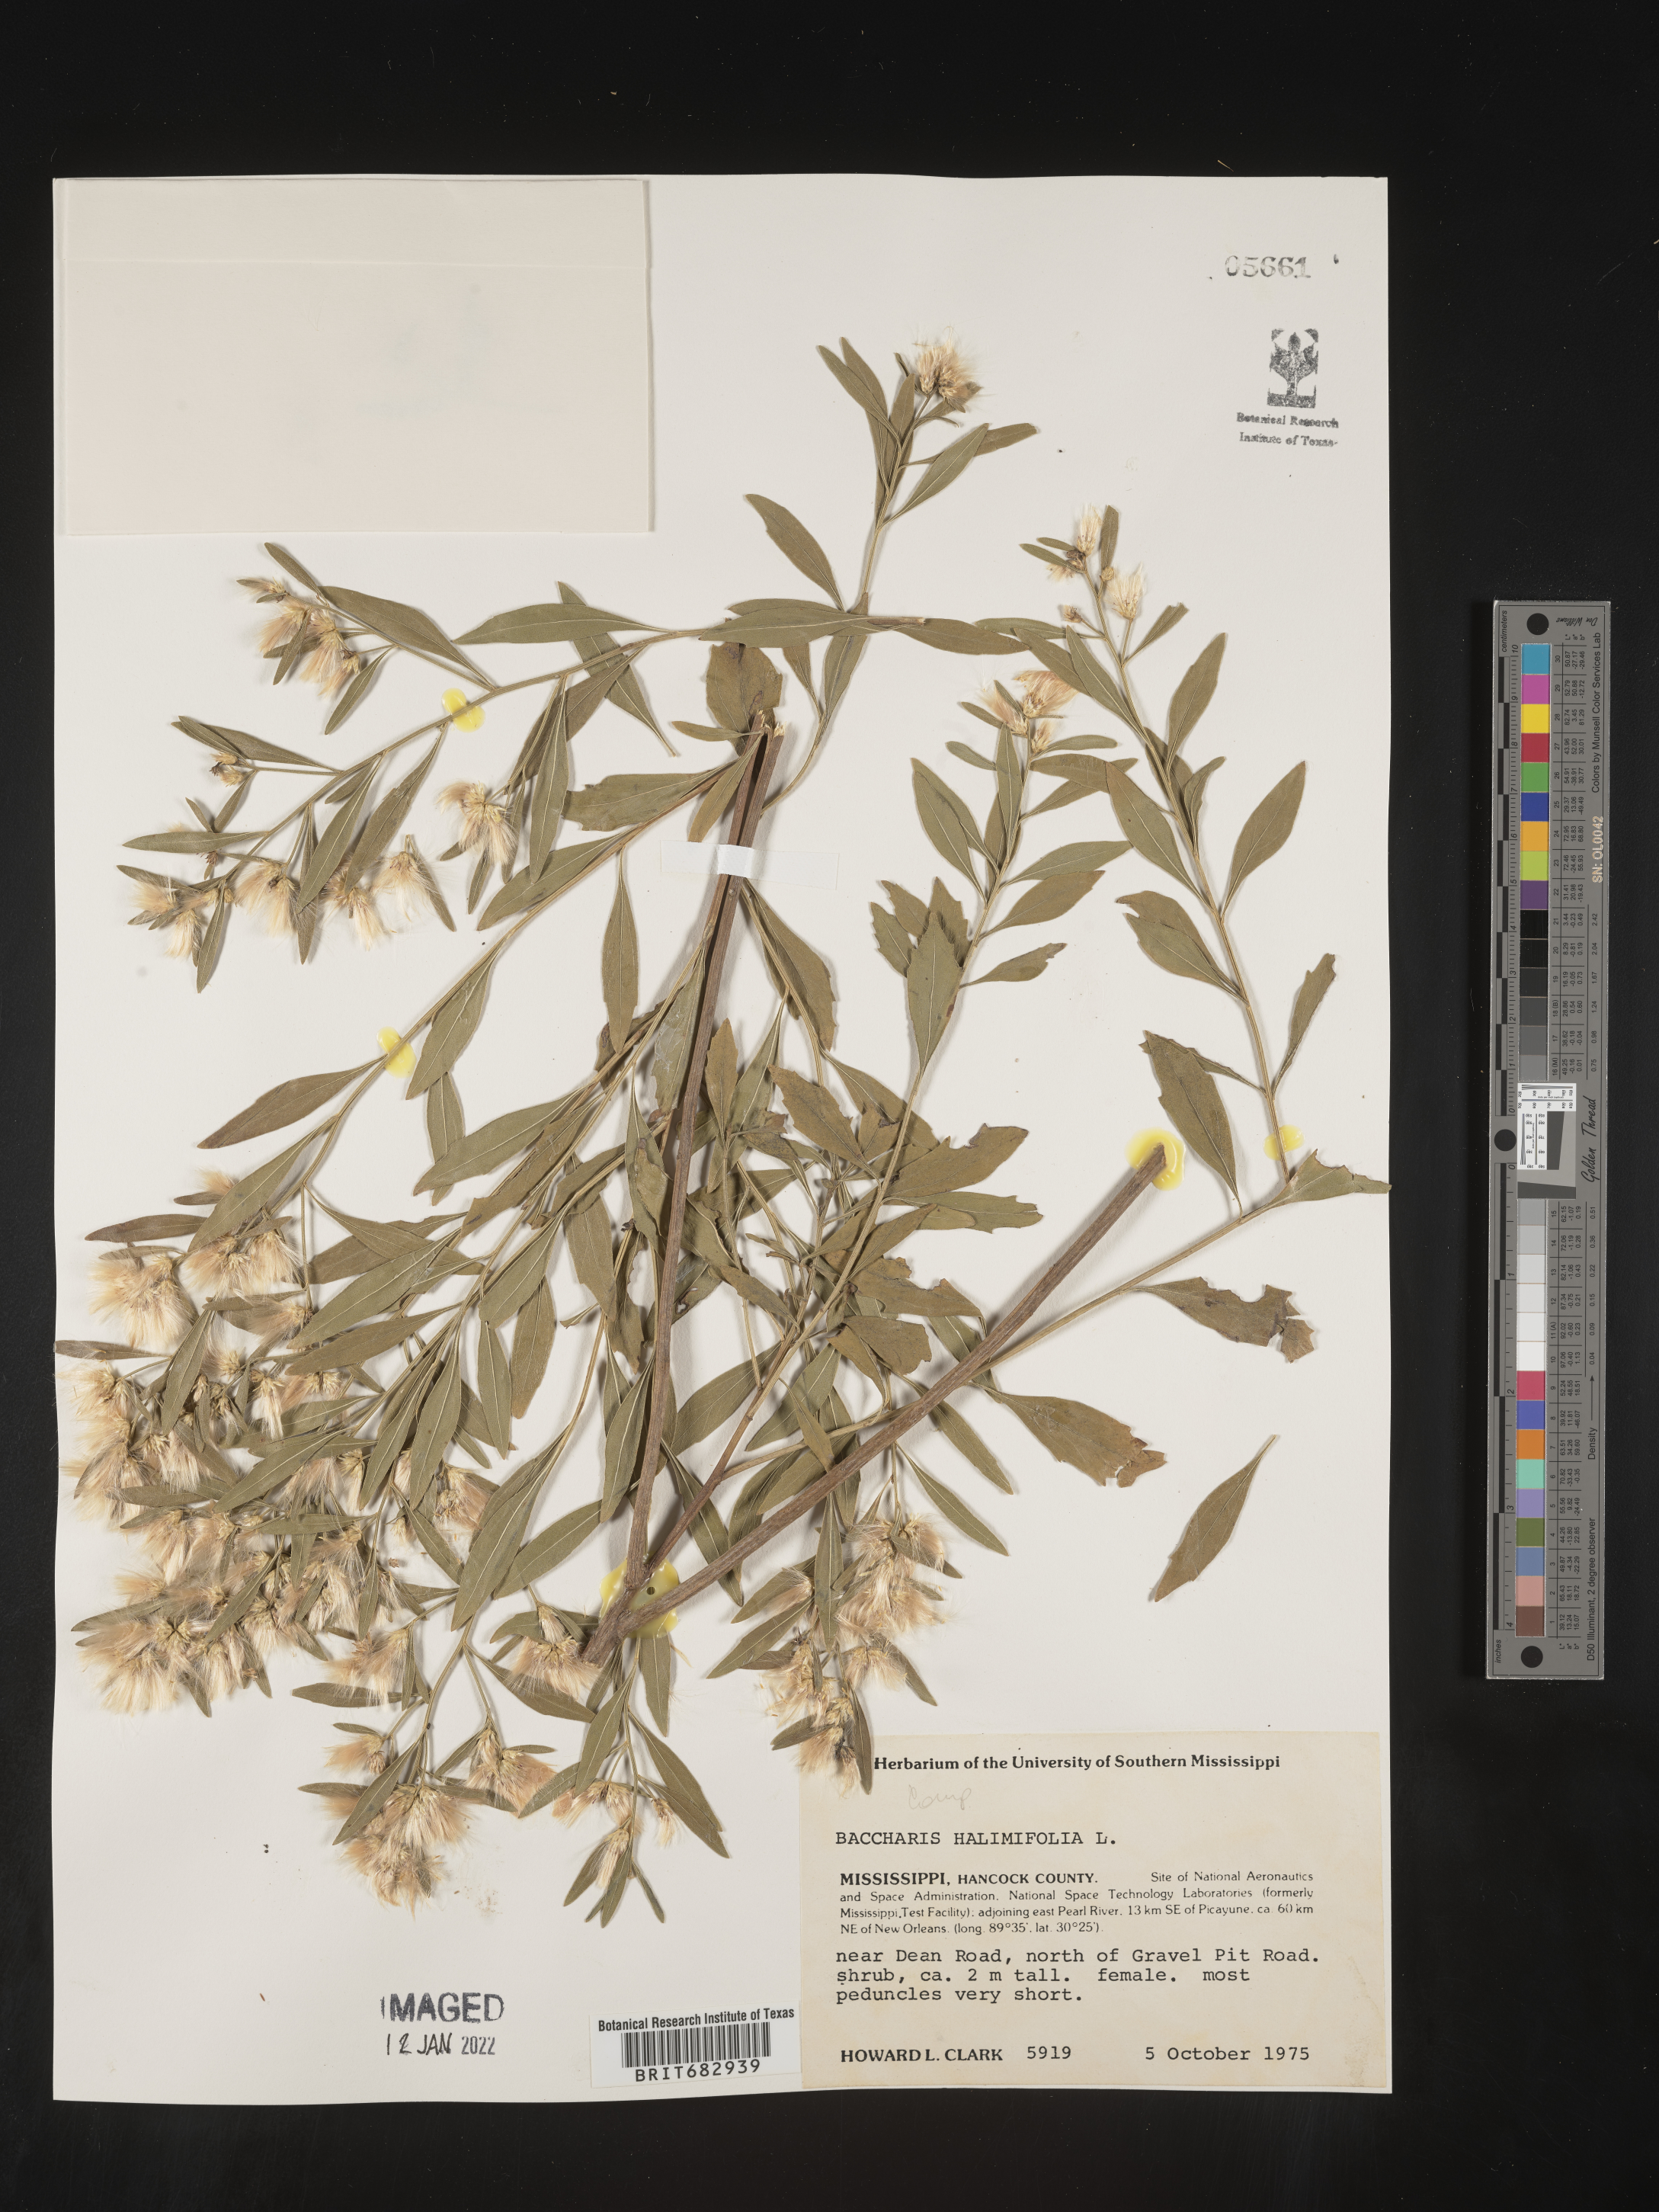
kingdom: Plantae
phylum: Tracheophyta
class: Magnoliopsida
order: Asterales
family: Asteraceae
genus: Nidorella
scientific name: Nidorella ivifolia
